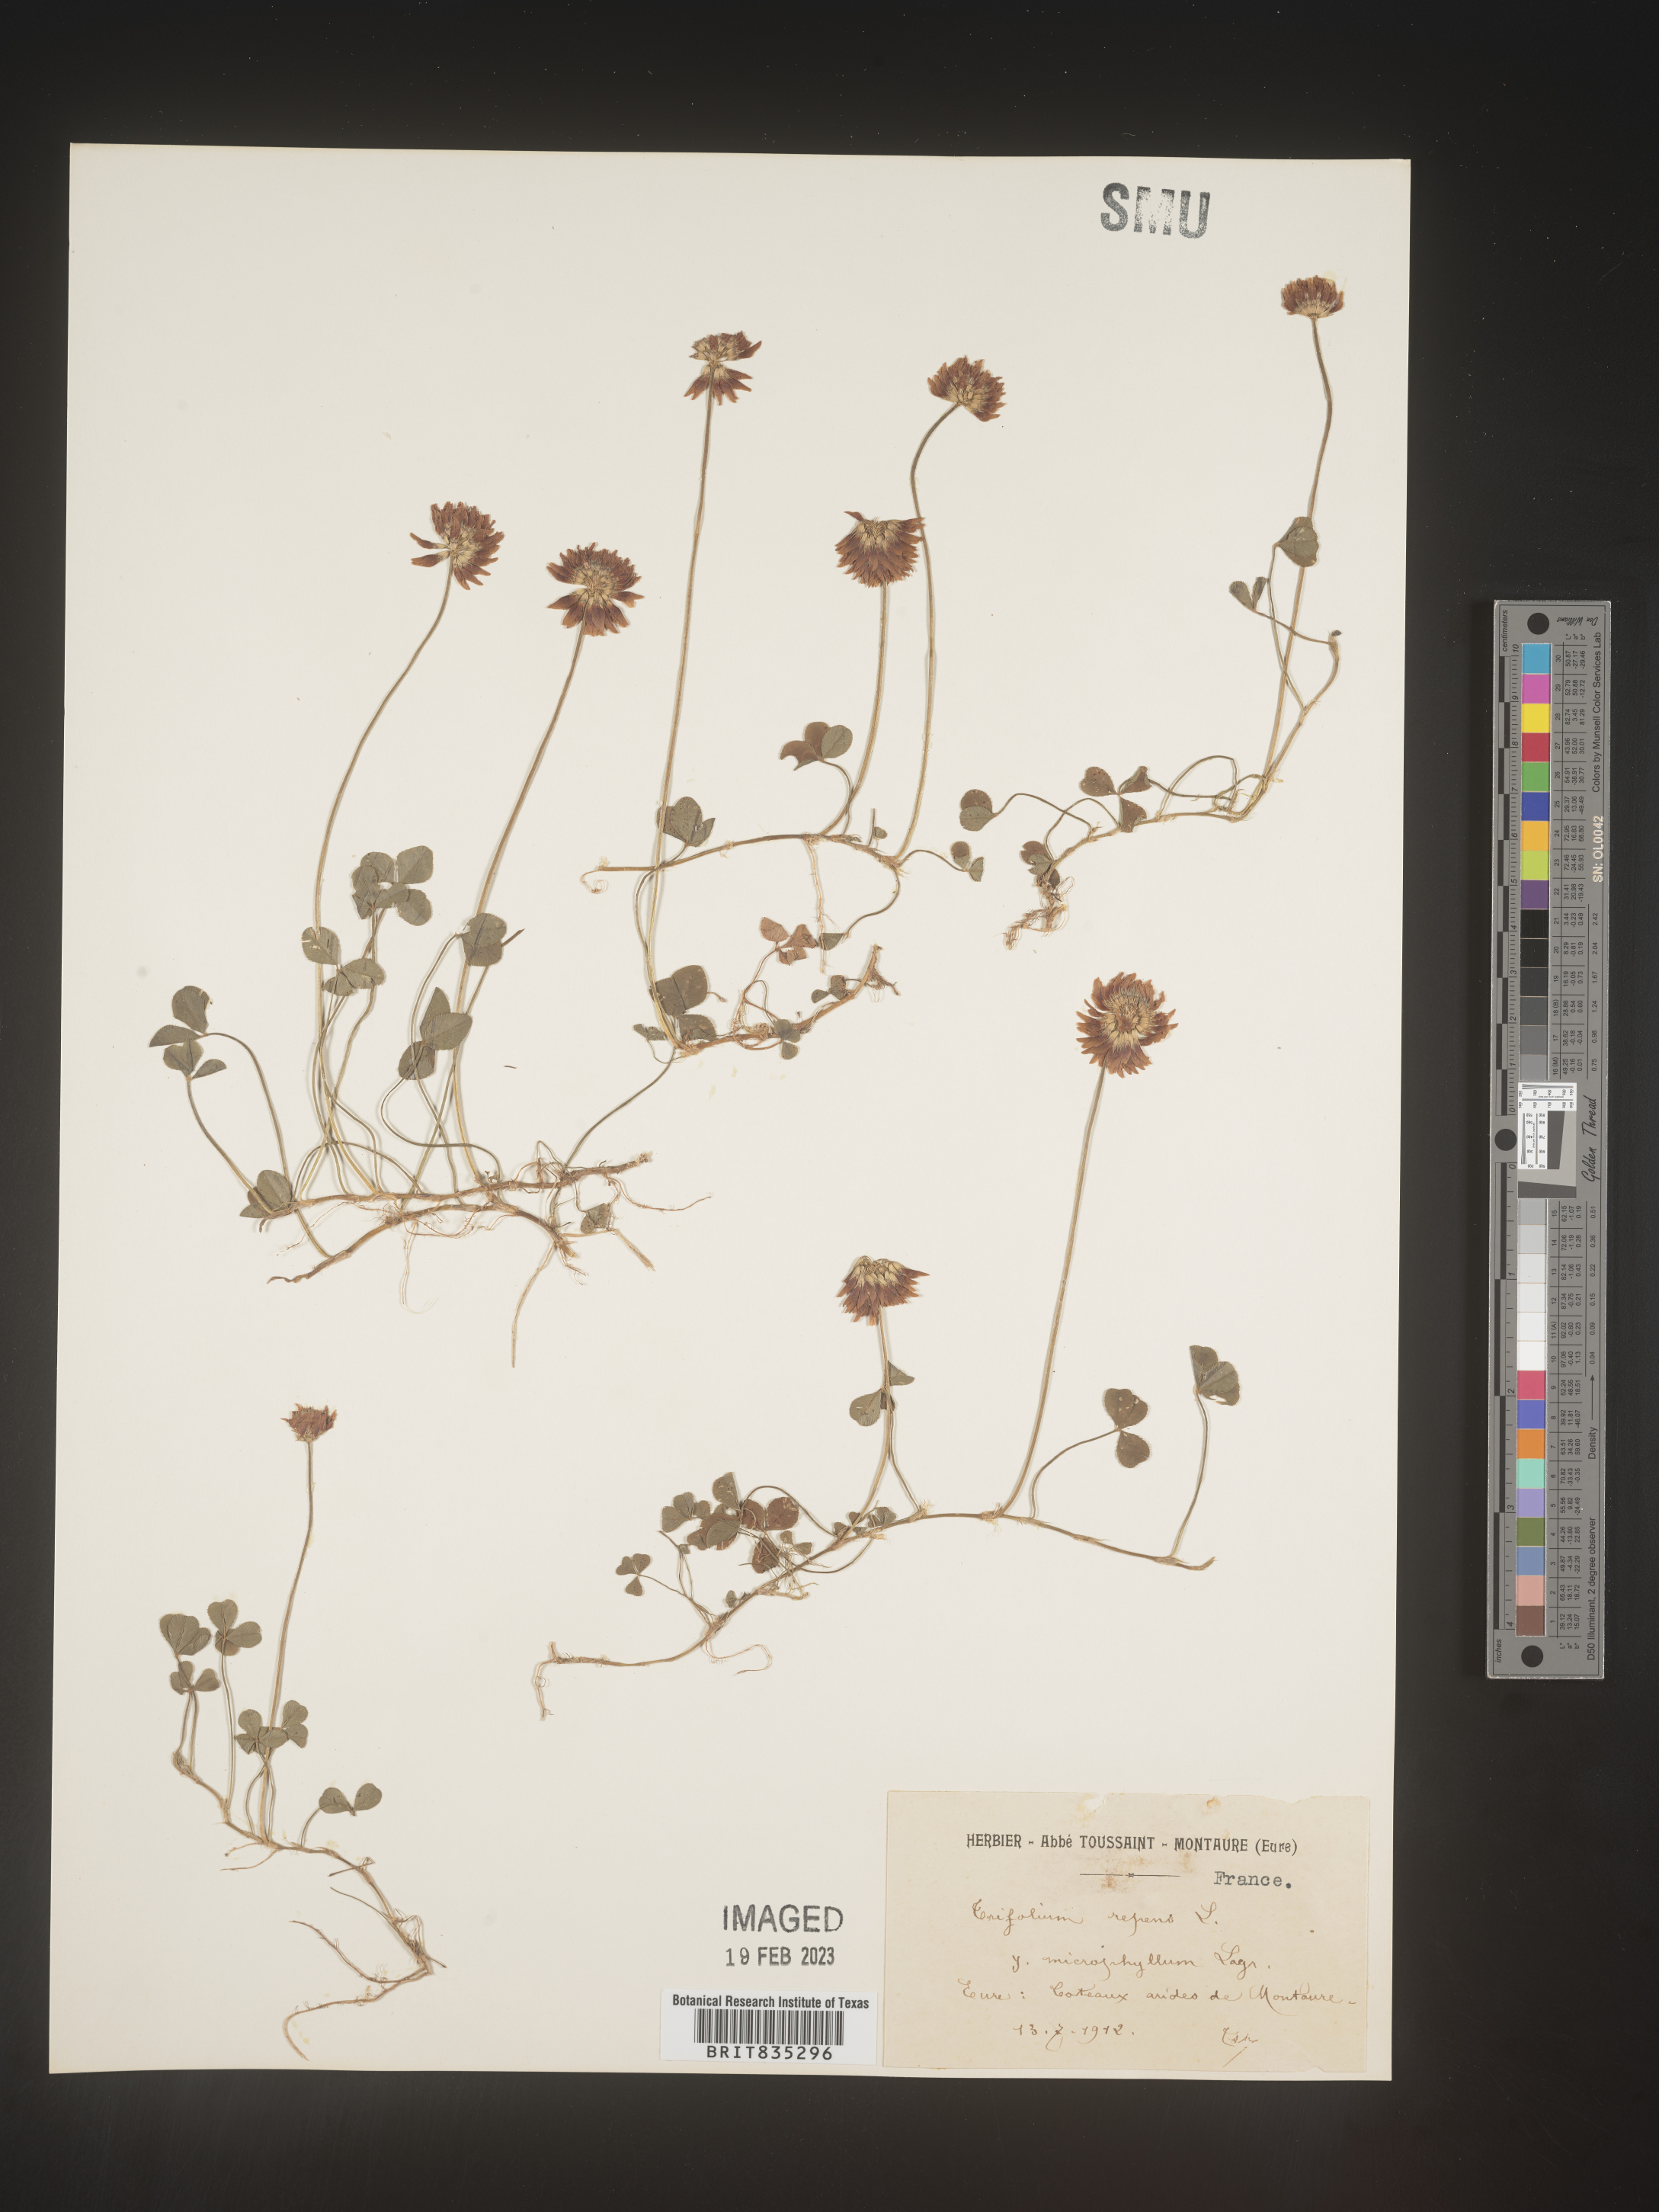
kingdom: Plantae
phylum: Tracheophyta
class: Magnoliopsida
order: Fabales
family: Fabaceae
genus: Trifolium
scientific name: Trifolium
